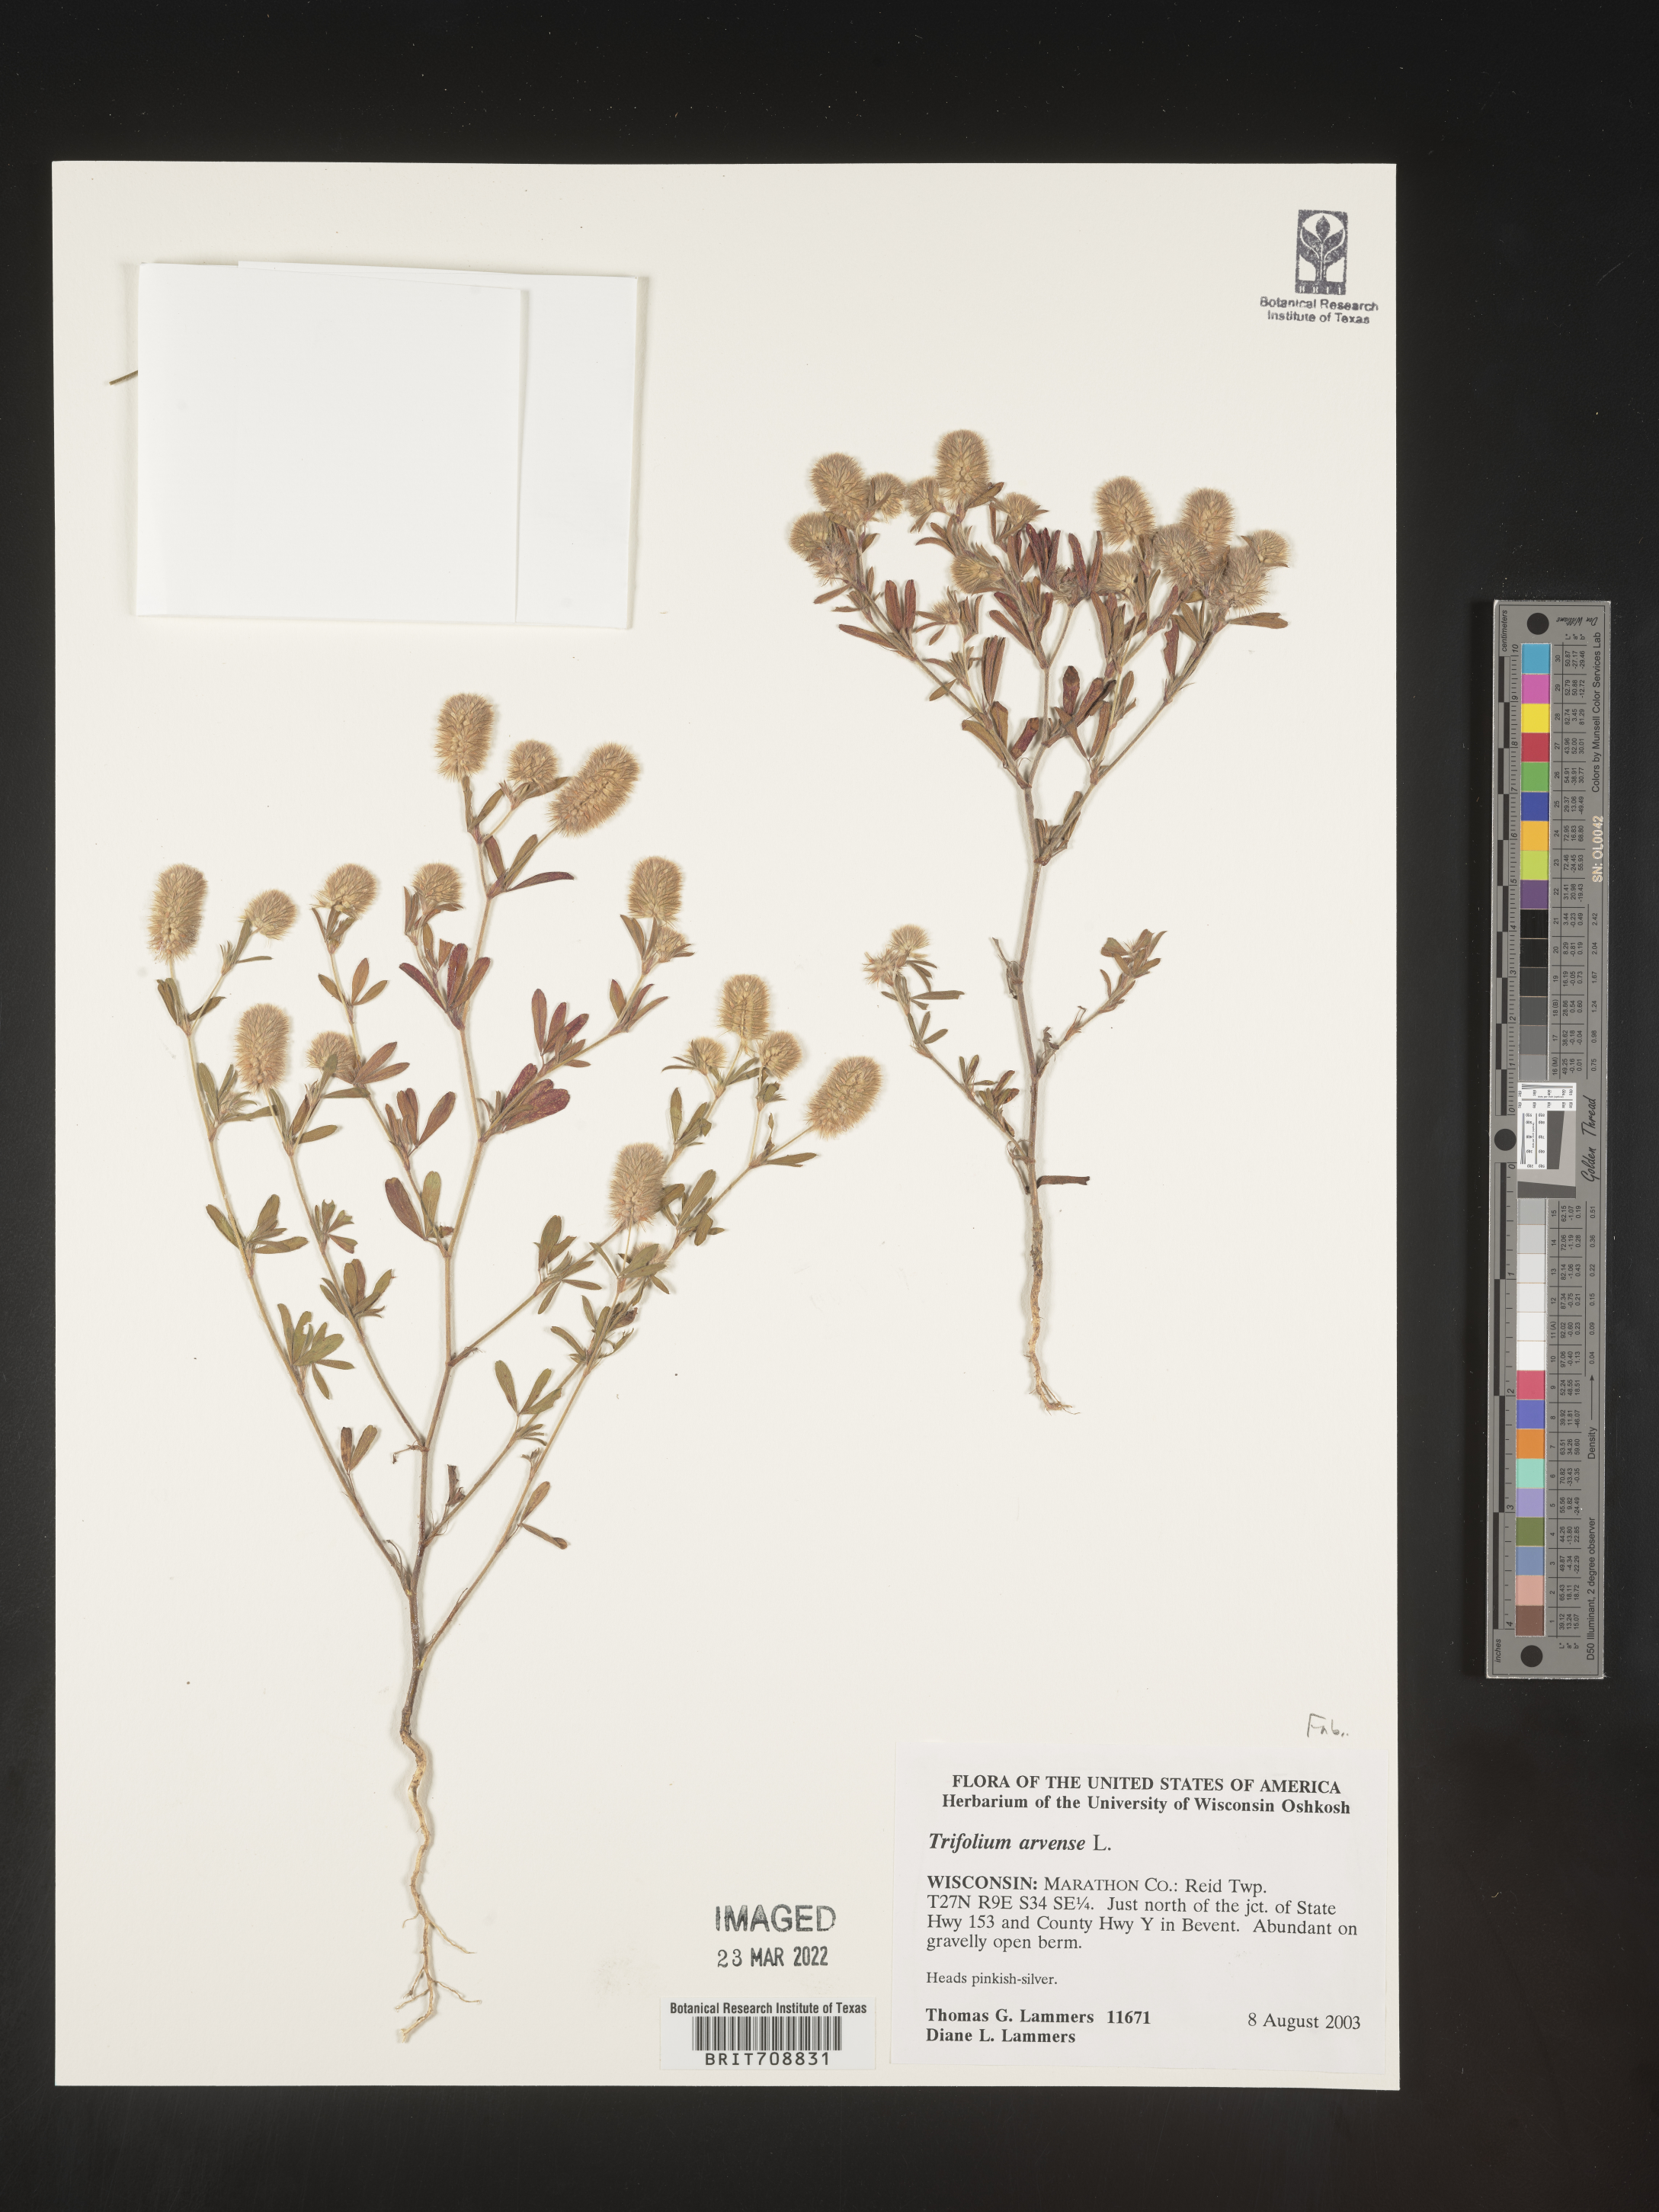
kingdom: Plantae
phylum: Tracheophyta
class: Magnoliopsida
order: Fabales
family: Fabaceae
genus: Trifolium
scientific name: Trifolium
